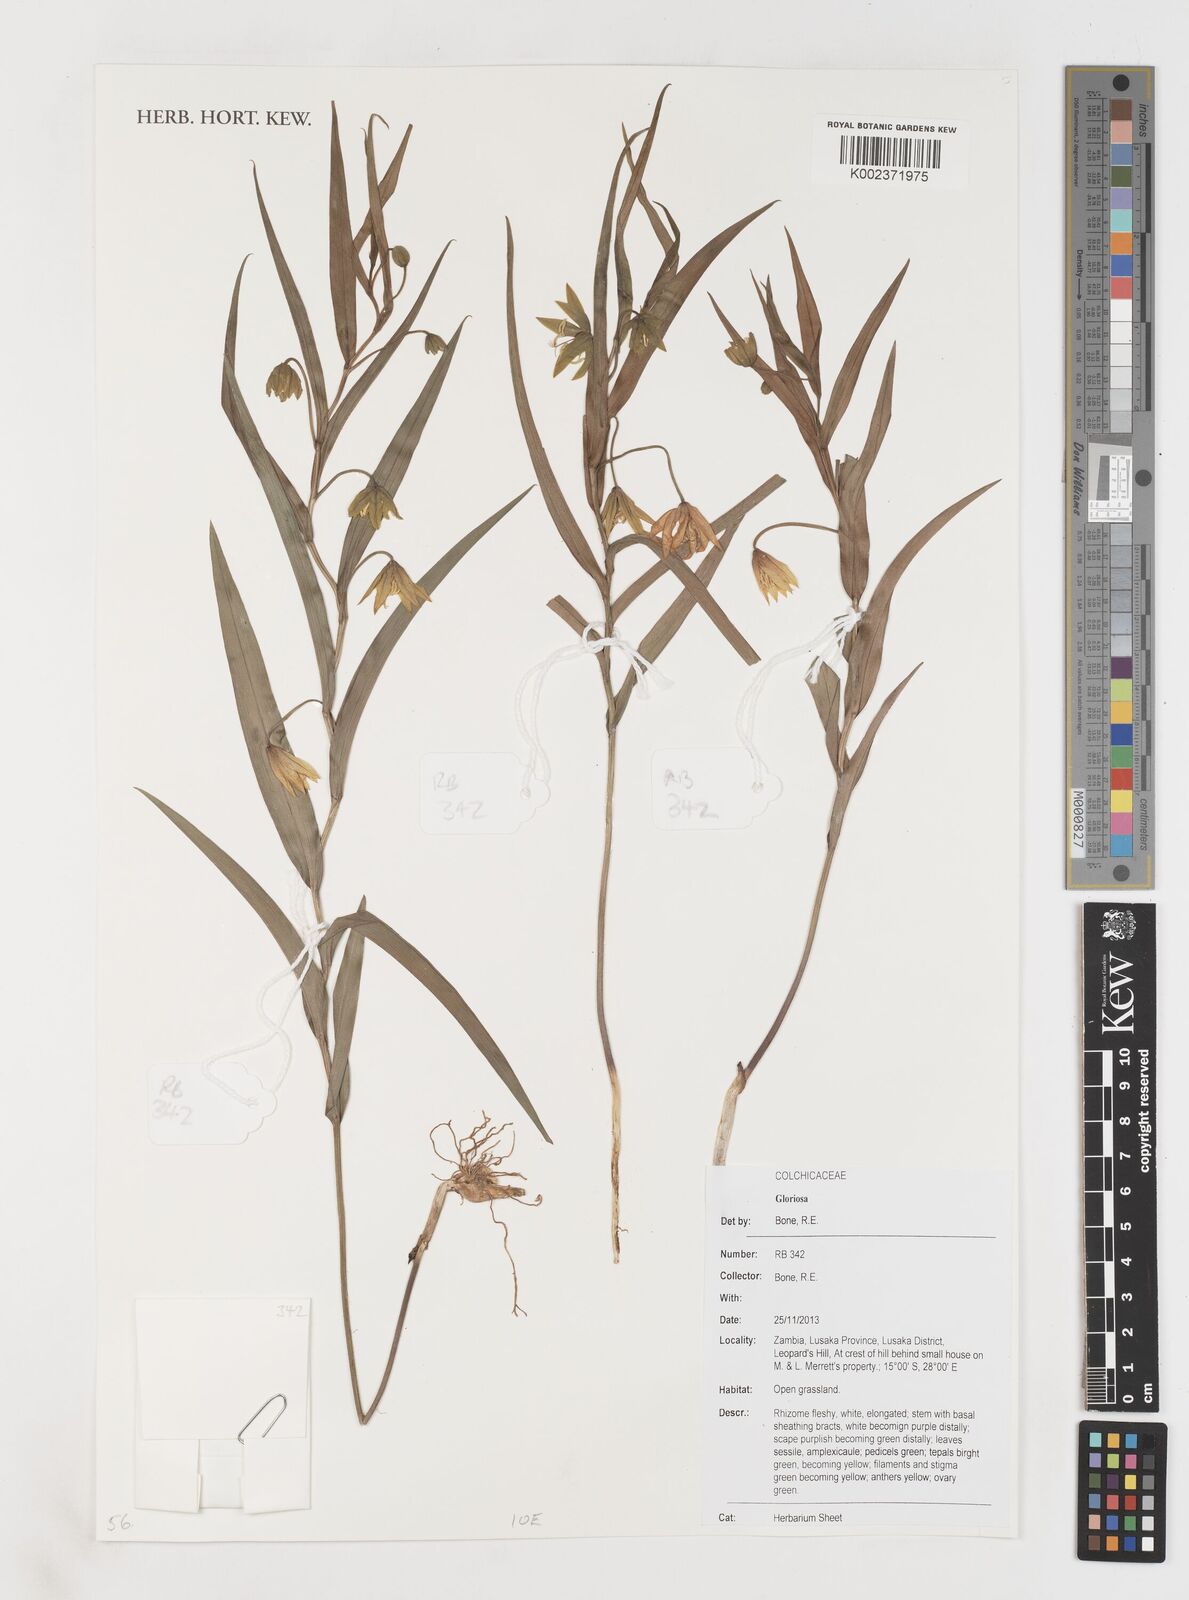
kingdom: Plantae
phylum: Tracheophyta
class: Liliopsida
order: Liliales
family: Colchicaceae
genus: Gloriosa
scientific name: Gloriosa
